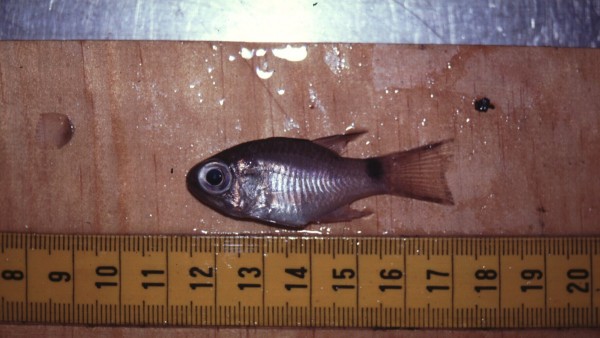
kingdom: Animalia
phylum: Chordata
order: Perciformes
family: Apogonidae
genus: Nectamia
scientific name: Nectamia savayensis
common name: Samoan cardinalfish
